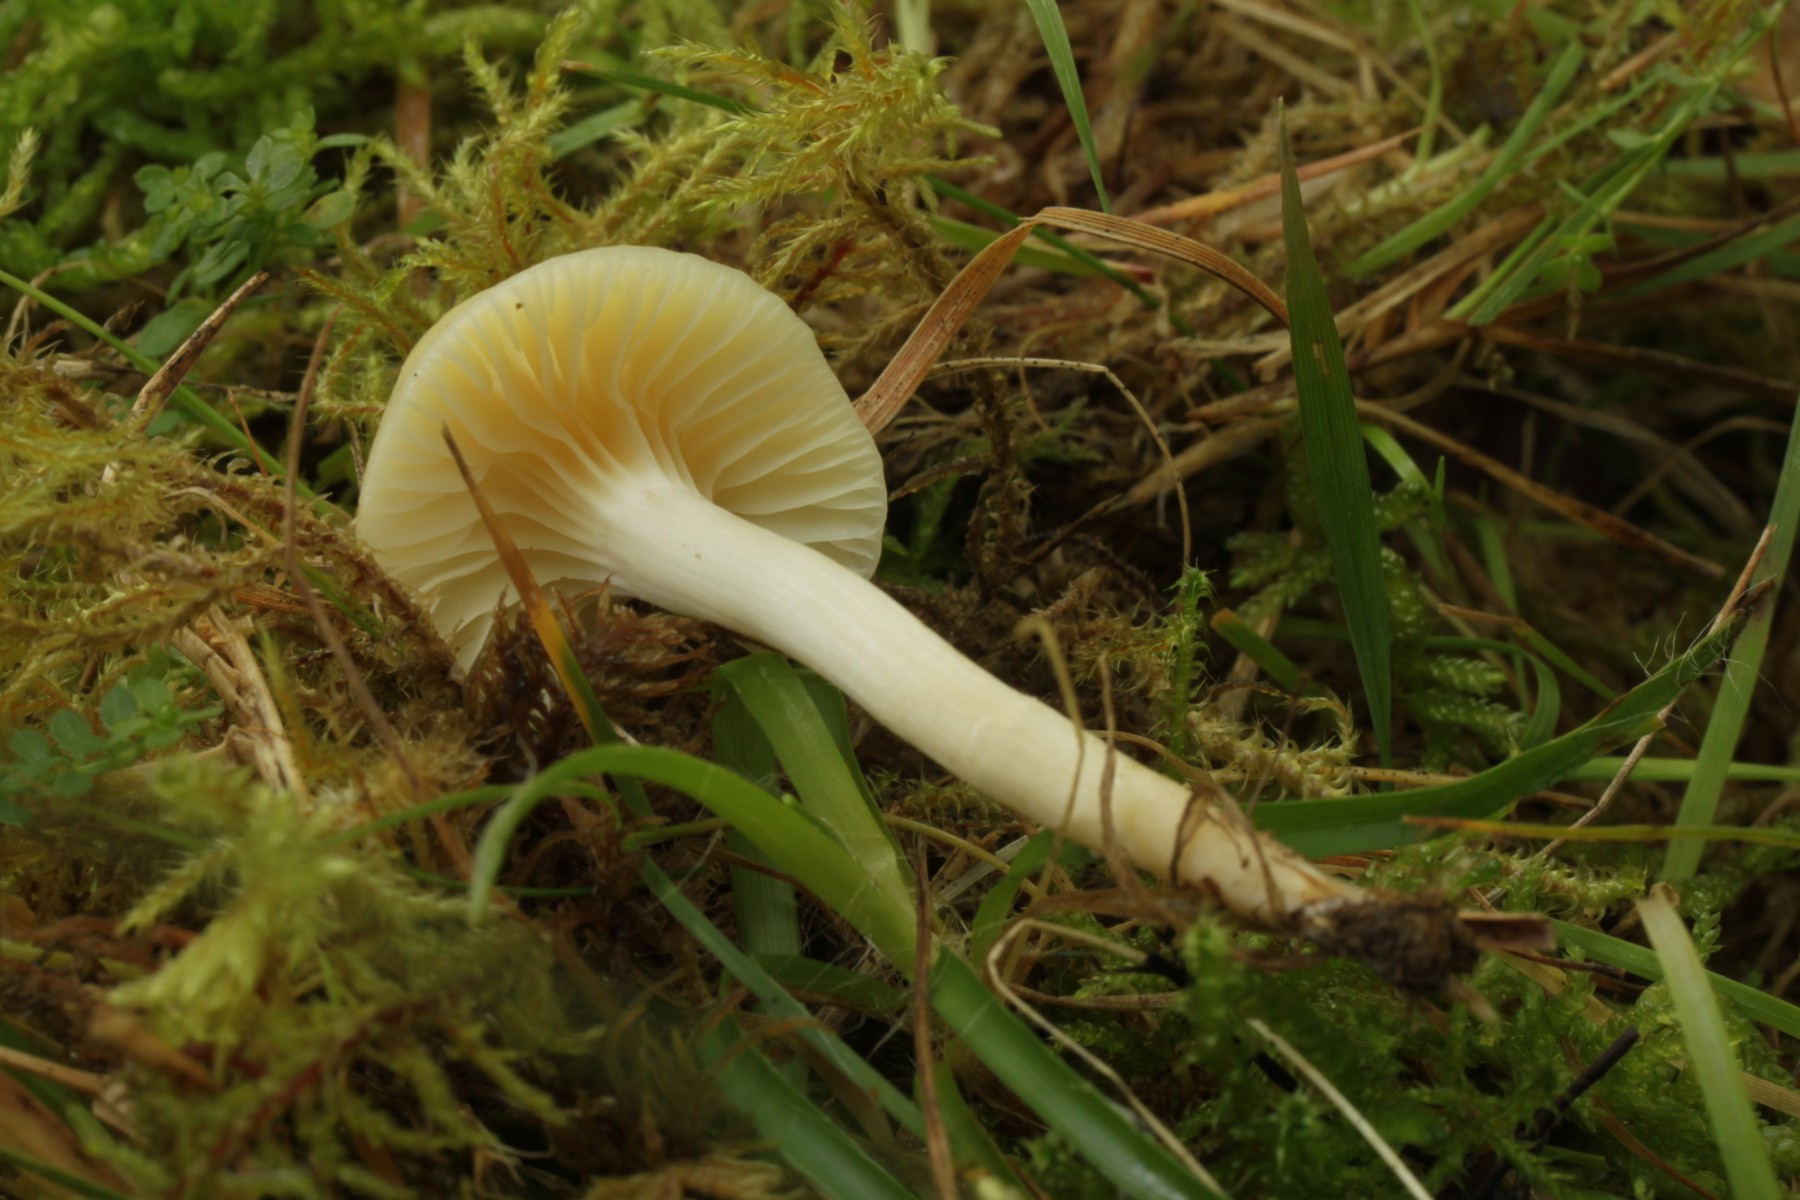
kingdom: Fungi
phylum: Basidiomycota
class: Agaricomycetes
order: Agaricales
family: Hygrophoraceae
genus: Cuphophyllus
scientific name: Cuphophyllus
